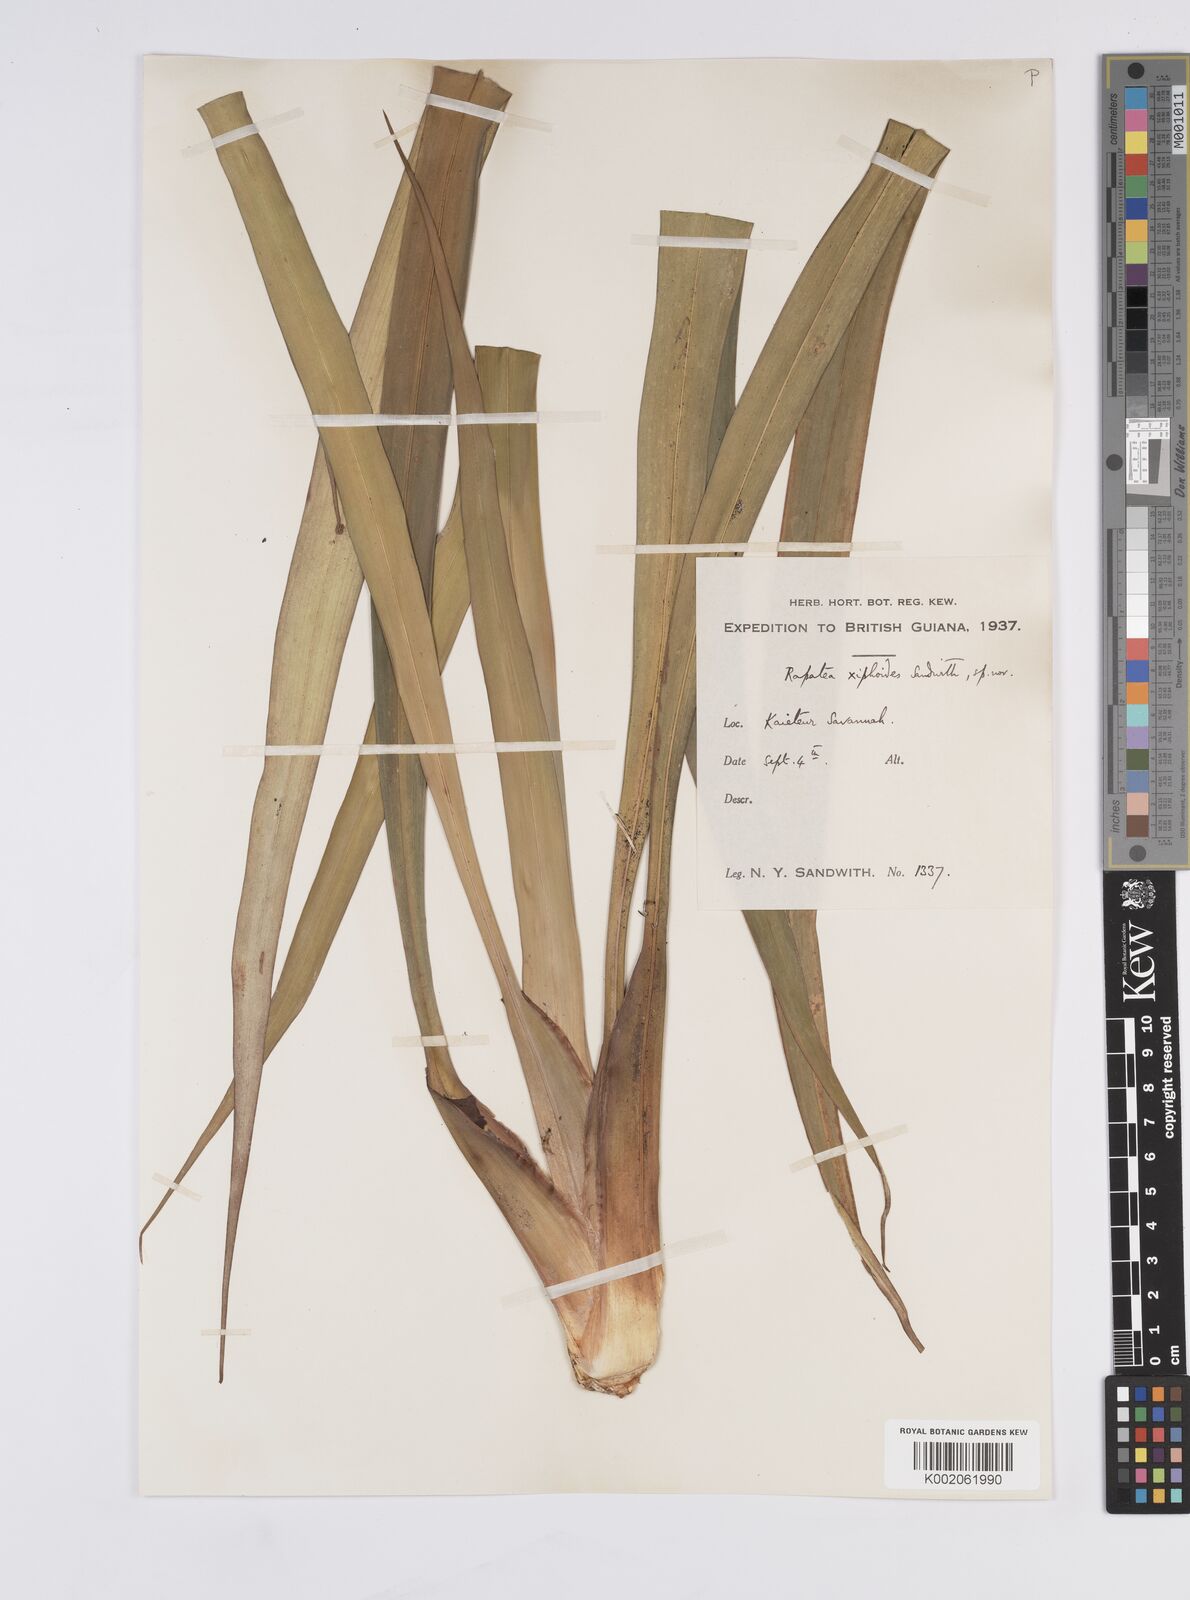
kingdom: Plantae
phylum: Tracheophyta
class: Liliopsida
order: Poales
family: Rapateaceae
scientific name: Rapateaceae
